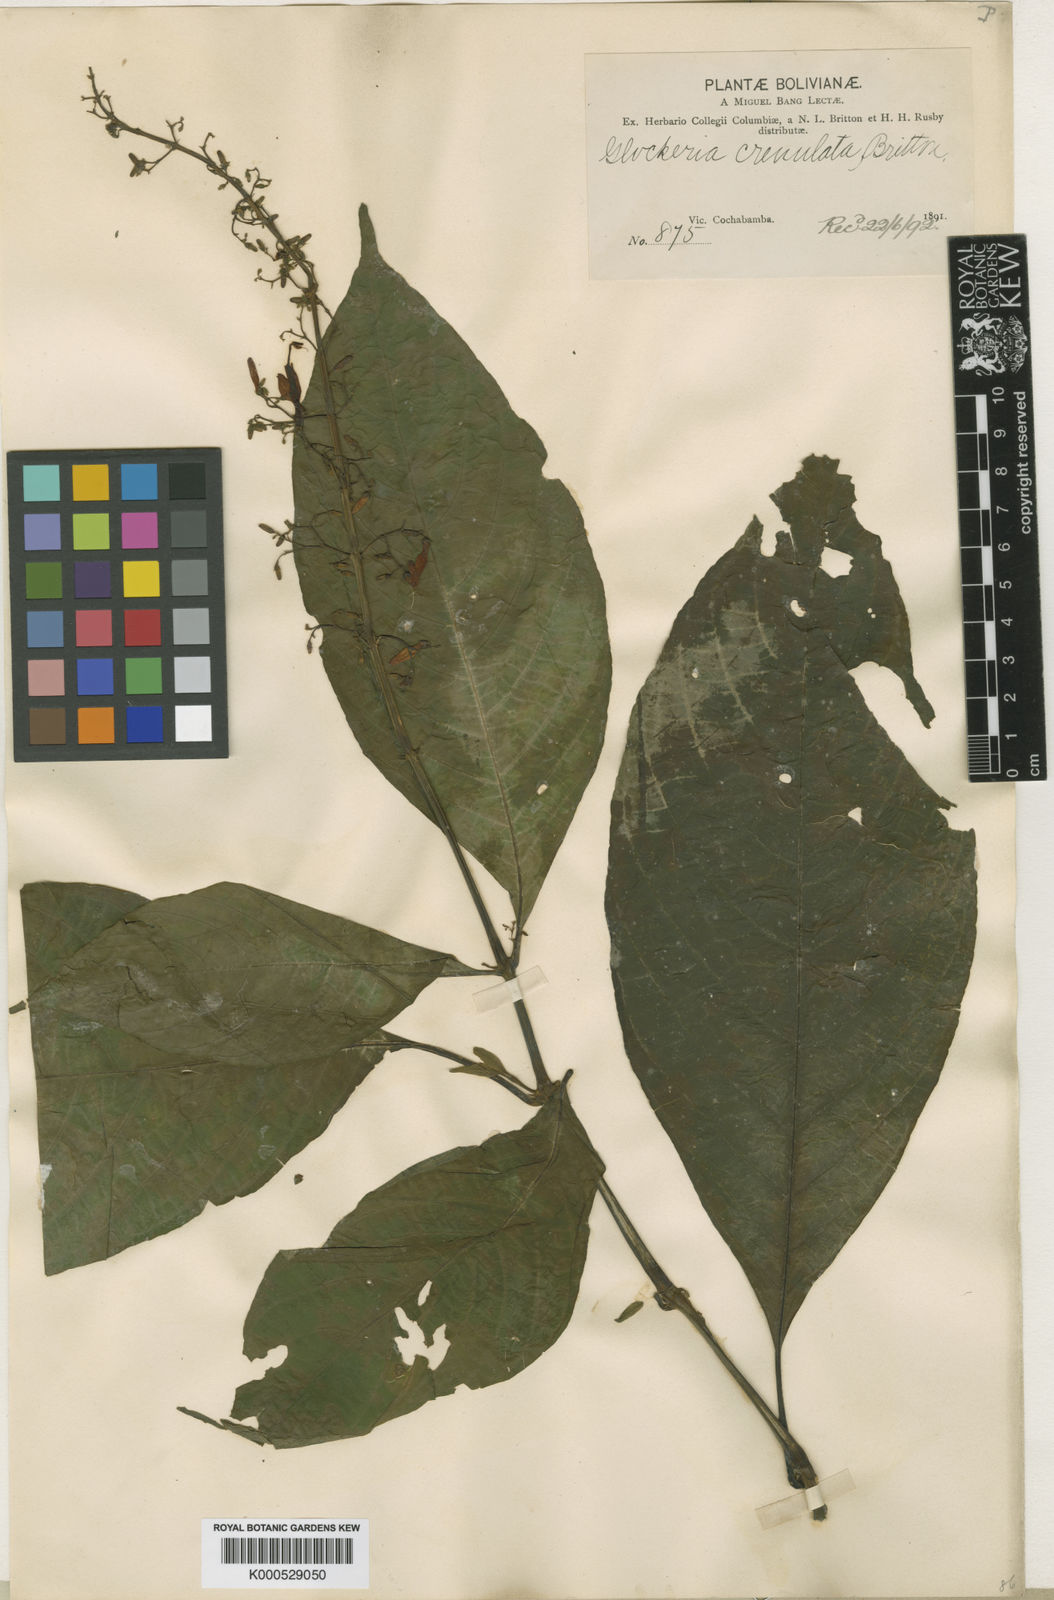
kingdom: Plantae
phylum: Tracheophyta
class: Magnoliopsida
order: Lamiales
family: Acanthaceae
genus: Stenostephanus
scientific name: Stenostephanus crenulatus
